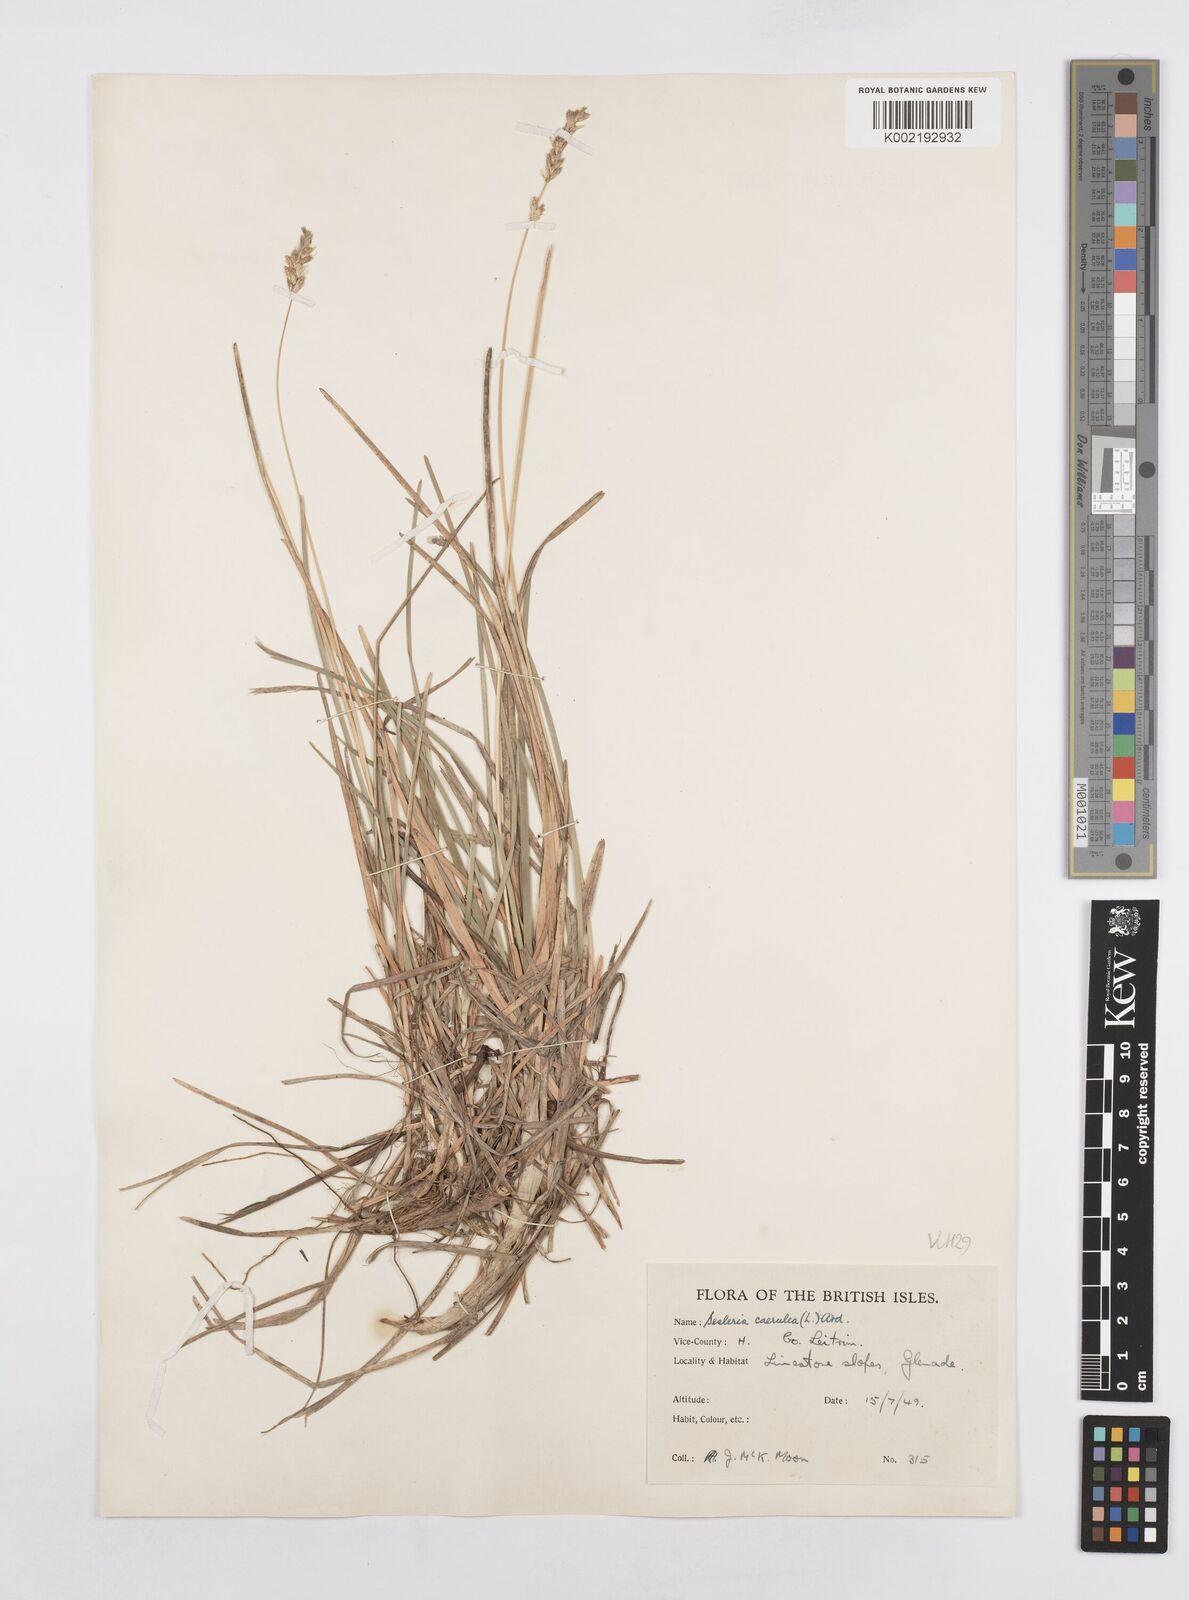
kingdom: Plantae
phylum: Tracheophyta
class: Liliopsida
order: Poales
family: Poaceae
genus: Sesleria
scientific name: Sesleria caerulea
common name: Blue moor-grass
